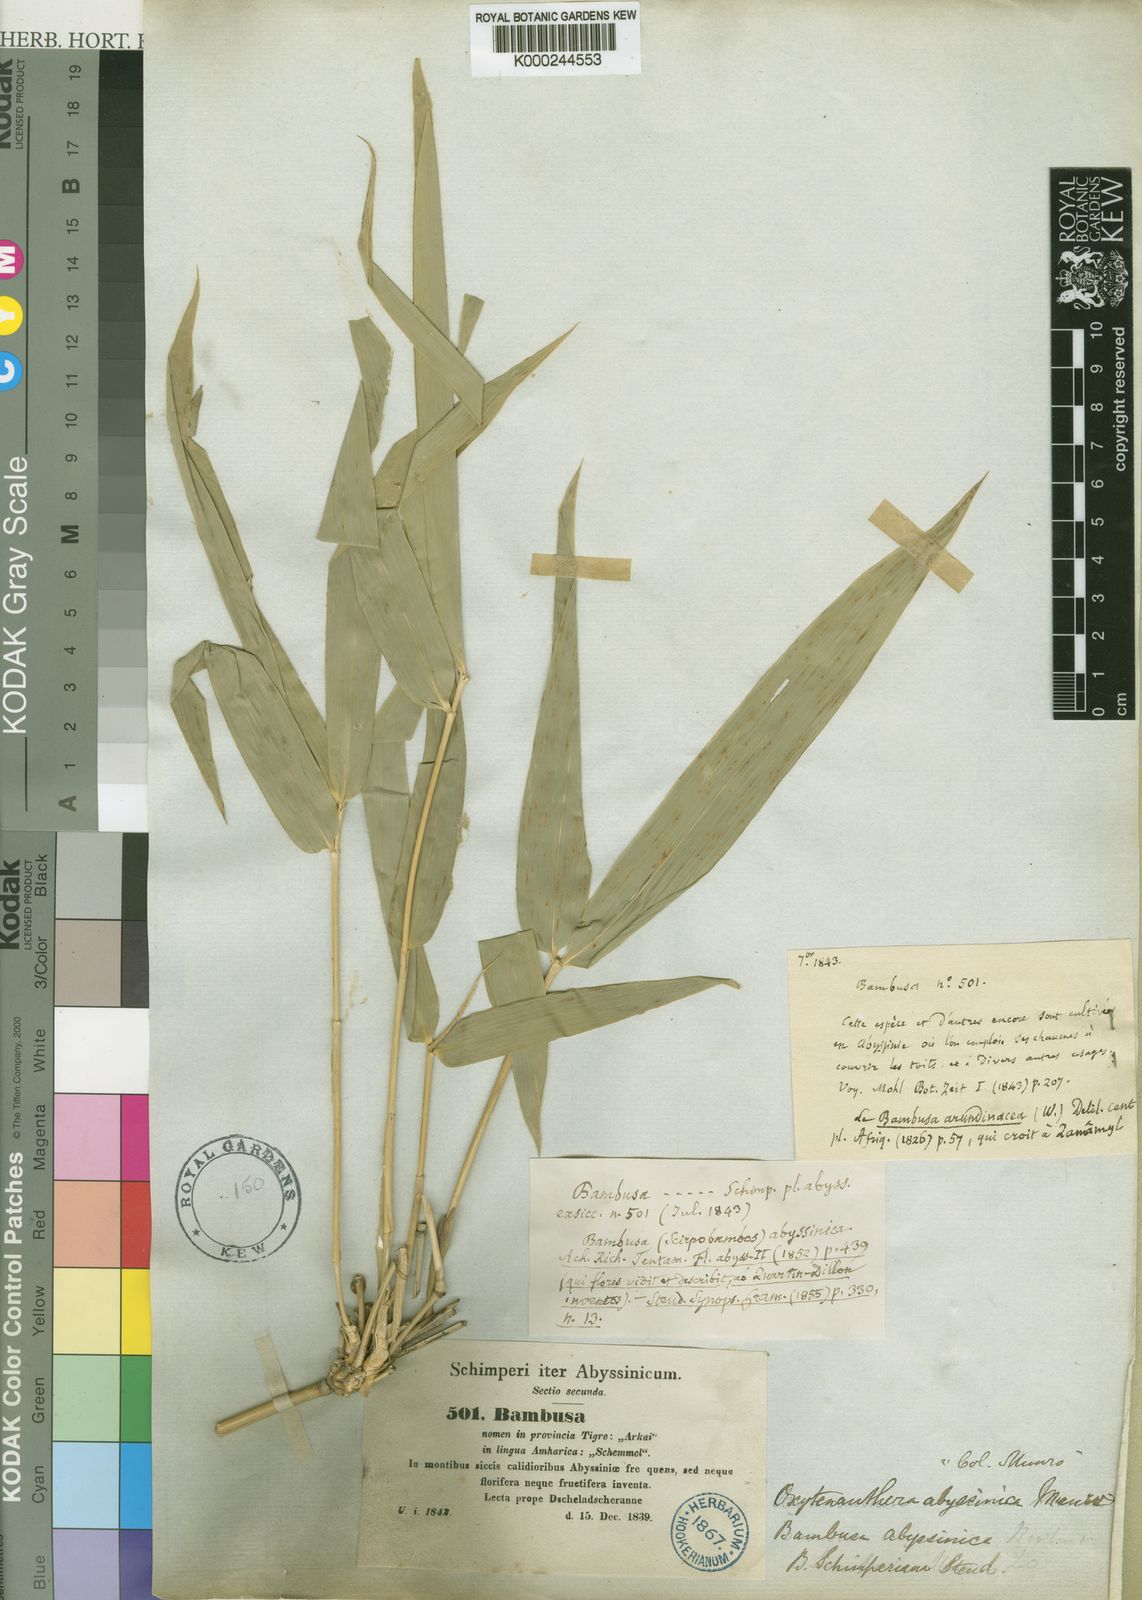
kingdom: Plantae
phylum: Tracheophyta
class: Liliopsida
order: Poales
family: Poaceae
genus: Oxytenanthera
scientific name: Oxytenanthera abyssinica
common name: Wine bamboo
